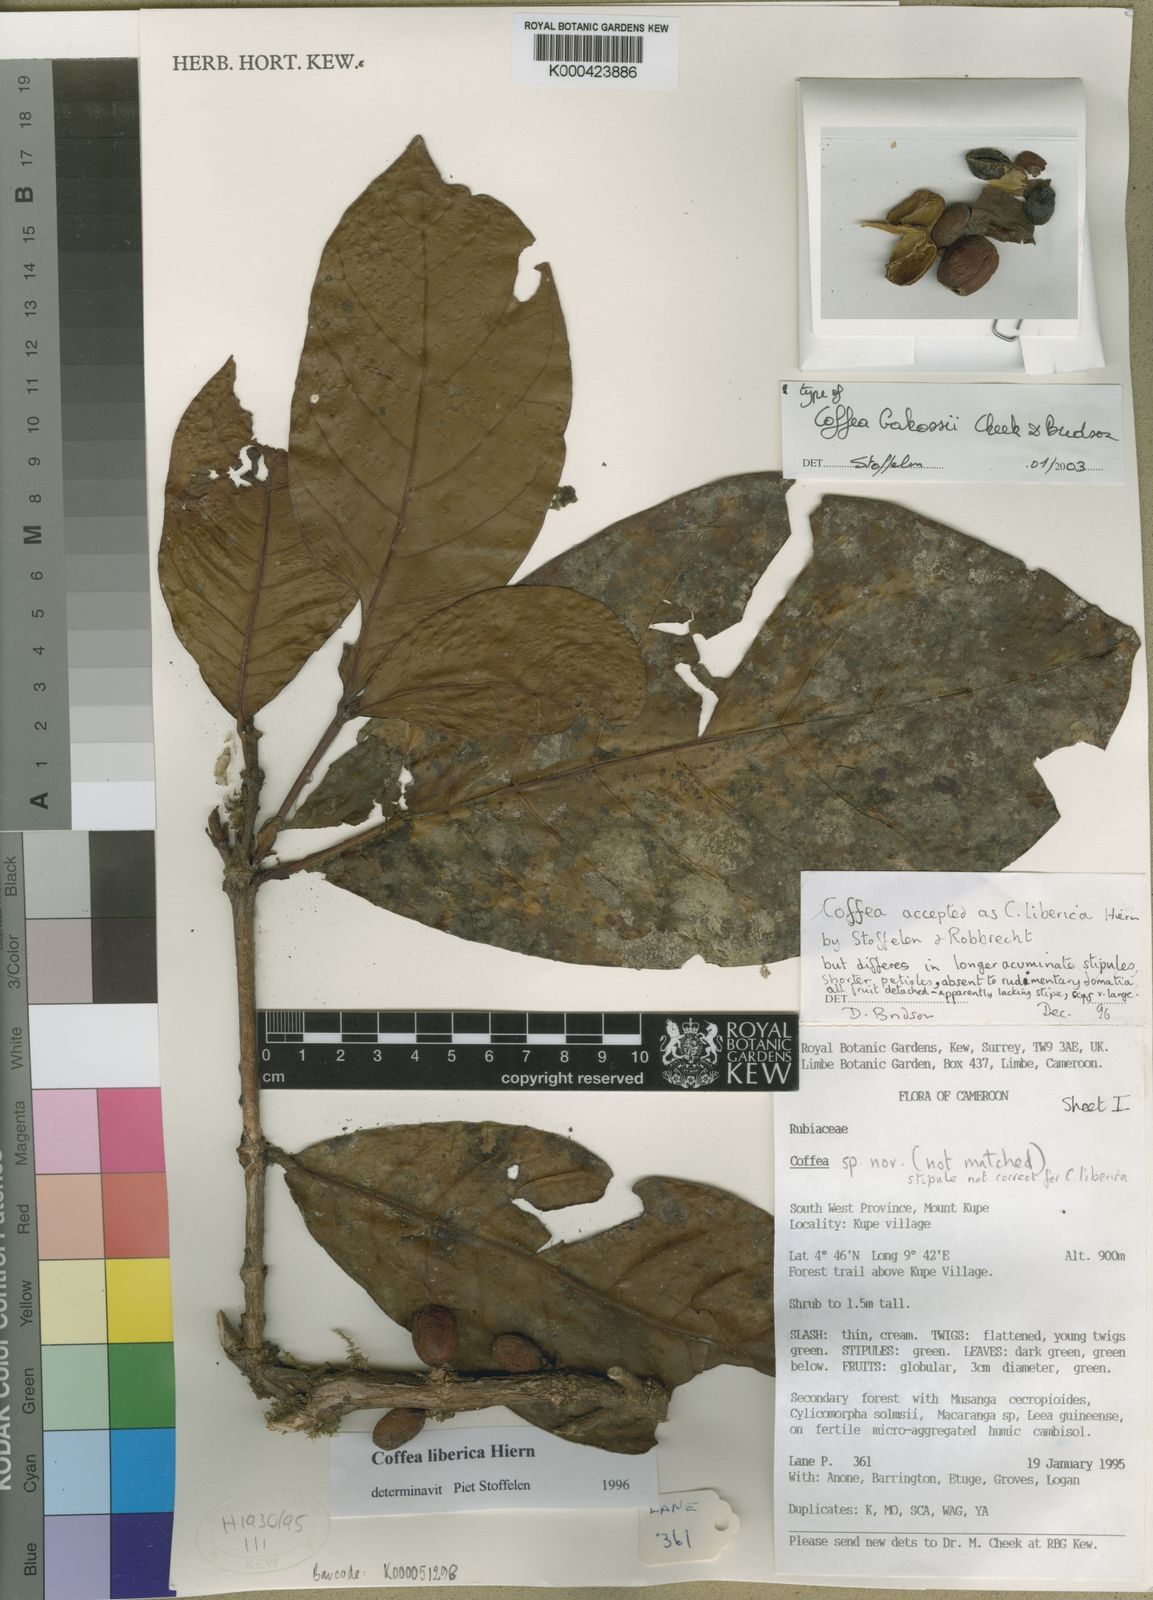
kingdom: Plantae
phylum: Tracheophyta
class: Magnoliopsida
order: Gentianales
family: Rubiaceae
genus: Coffea
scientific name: Coffea bakossii
